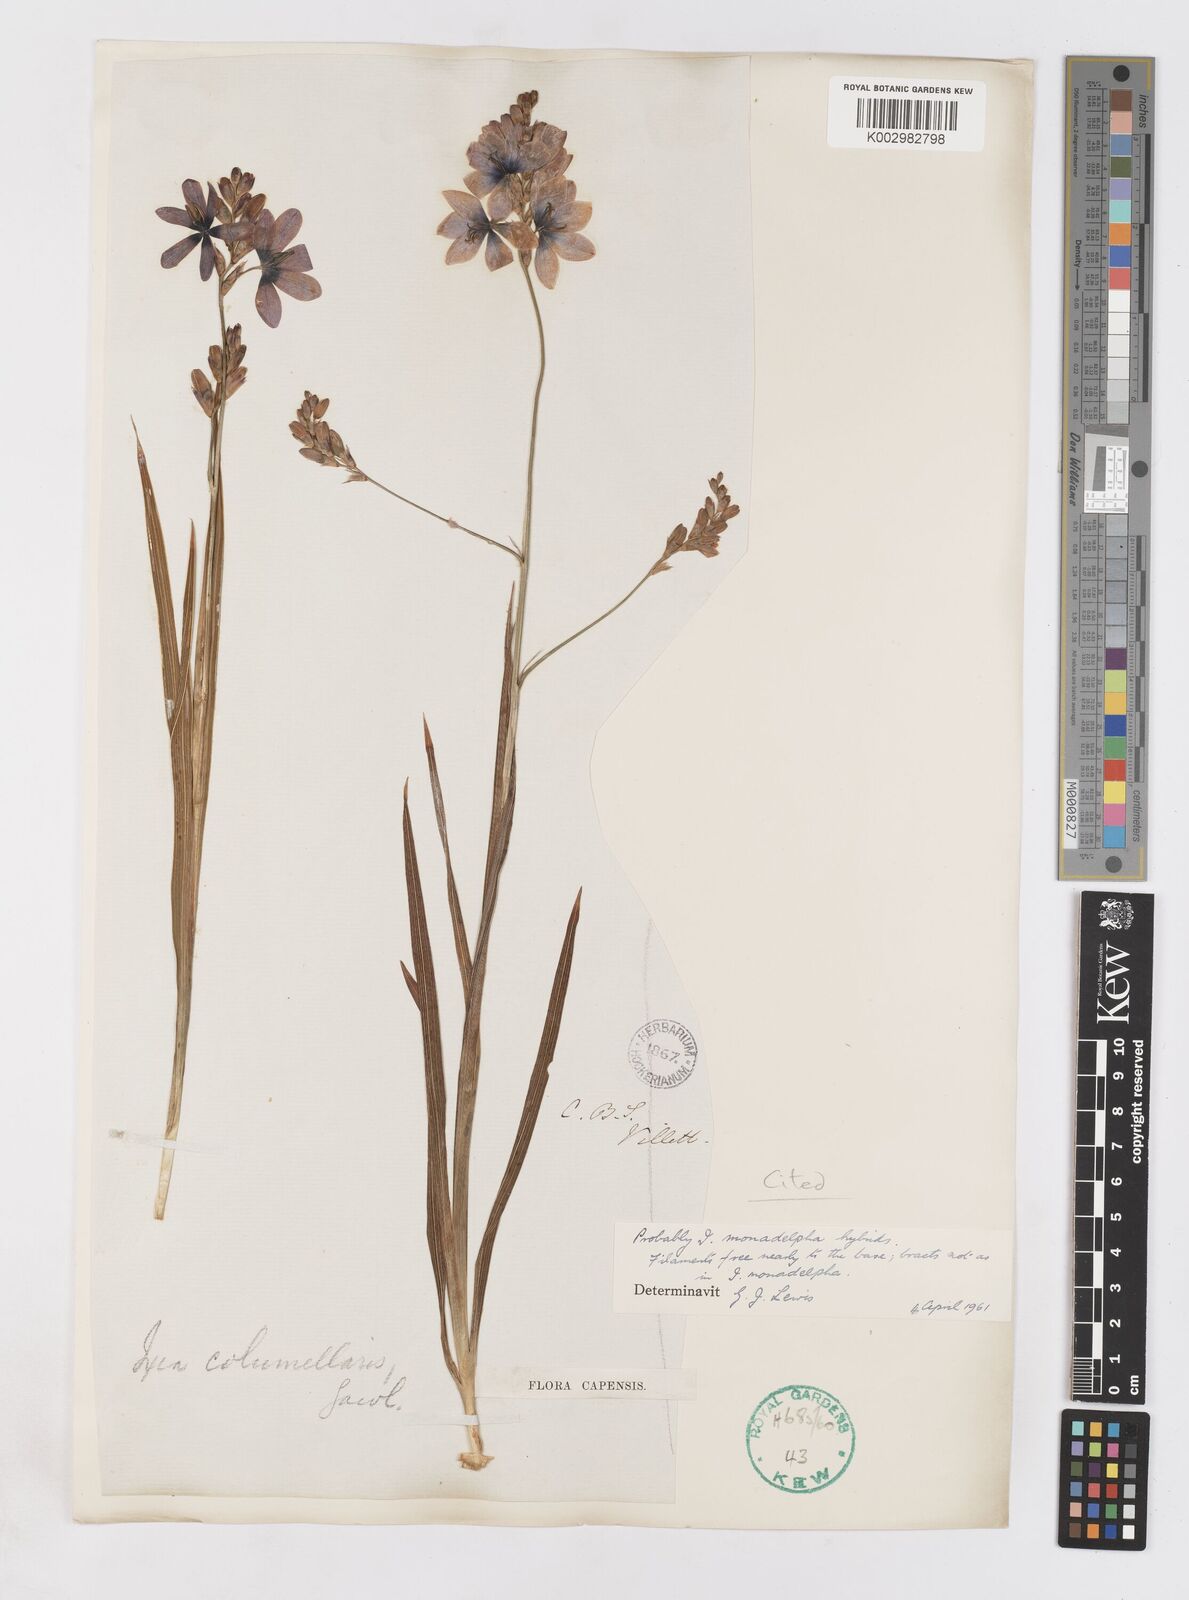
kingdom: Plantae
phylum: Tracheophyta
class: Liliopsida
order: Asparagales
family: Iridaceae
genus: Ixia
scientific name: Ixia monadelpha
